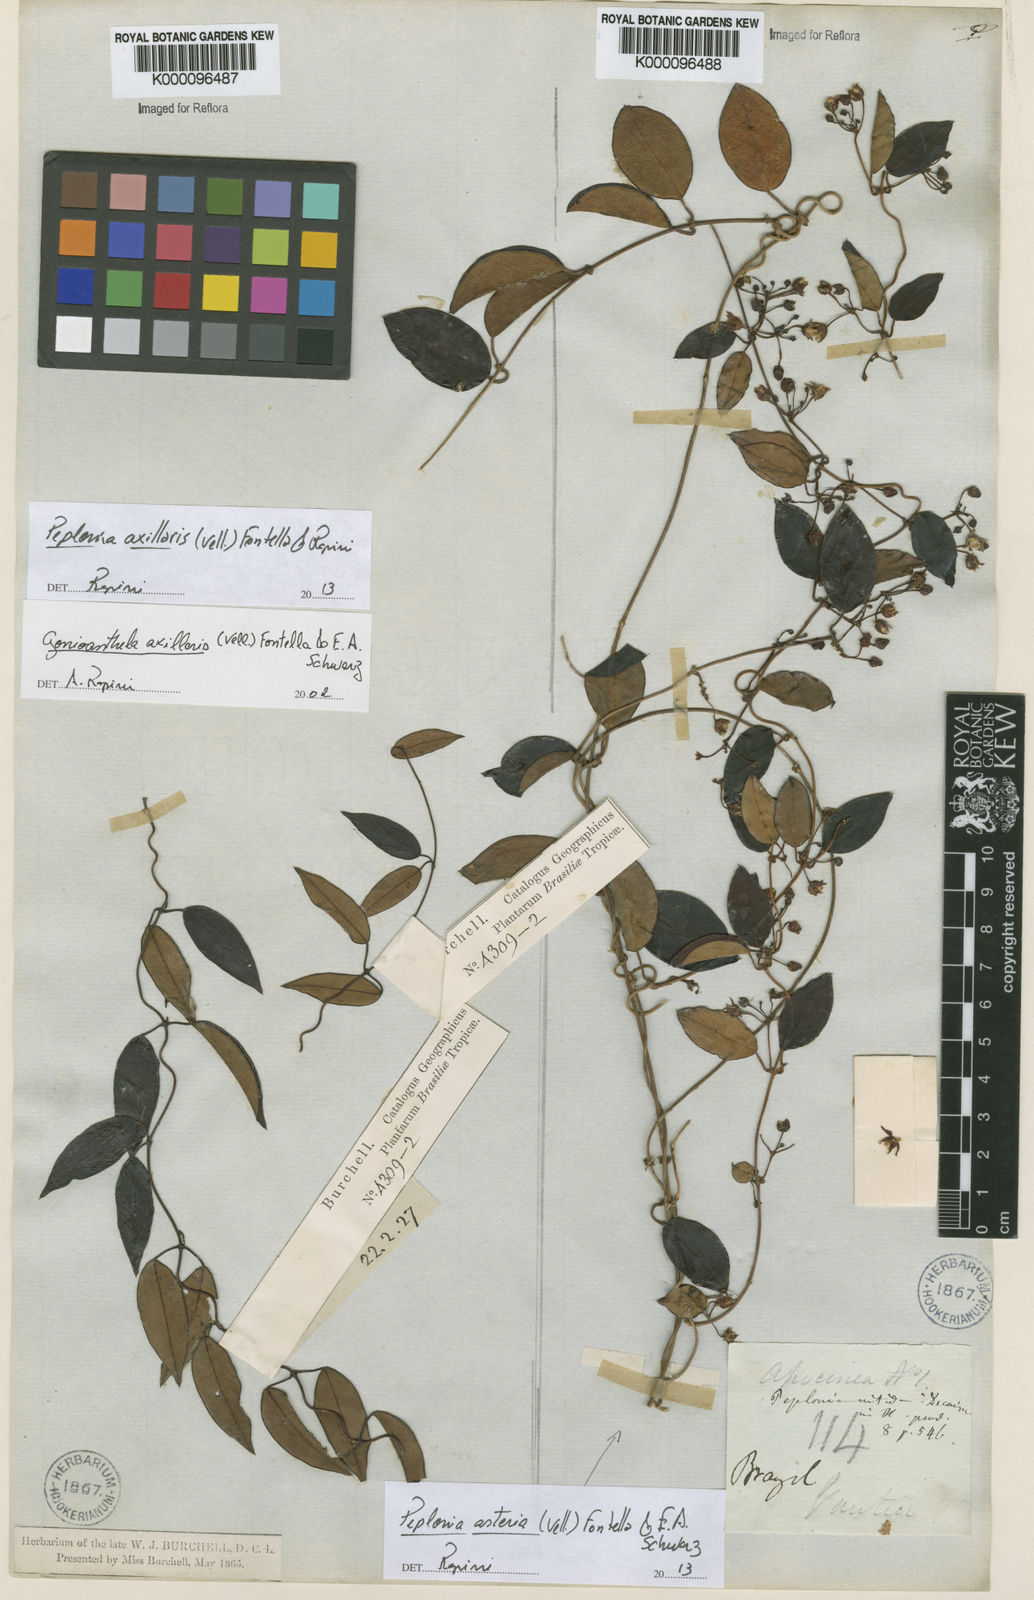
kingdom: Plantae
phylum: Tracheophyta
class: Magnoliopsida
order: Gentianales
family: Apocynaceae
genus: Peplonia
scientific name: Peplonia asteria
